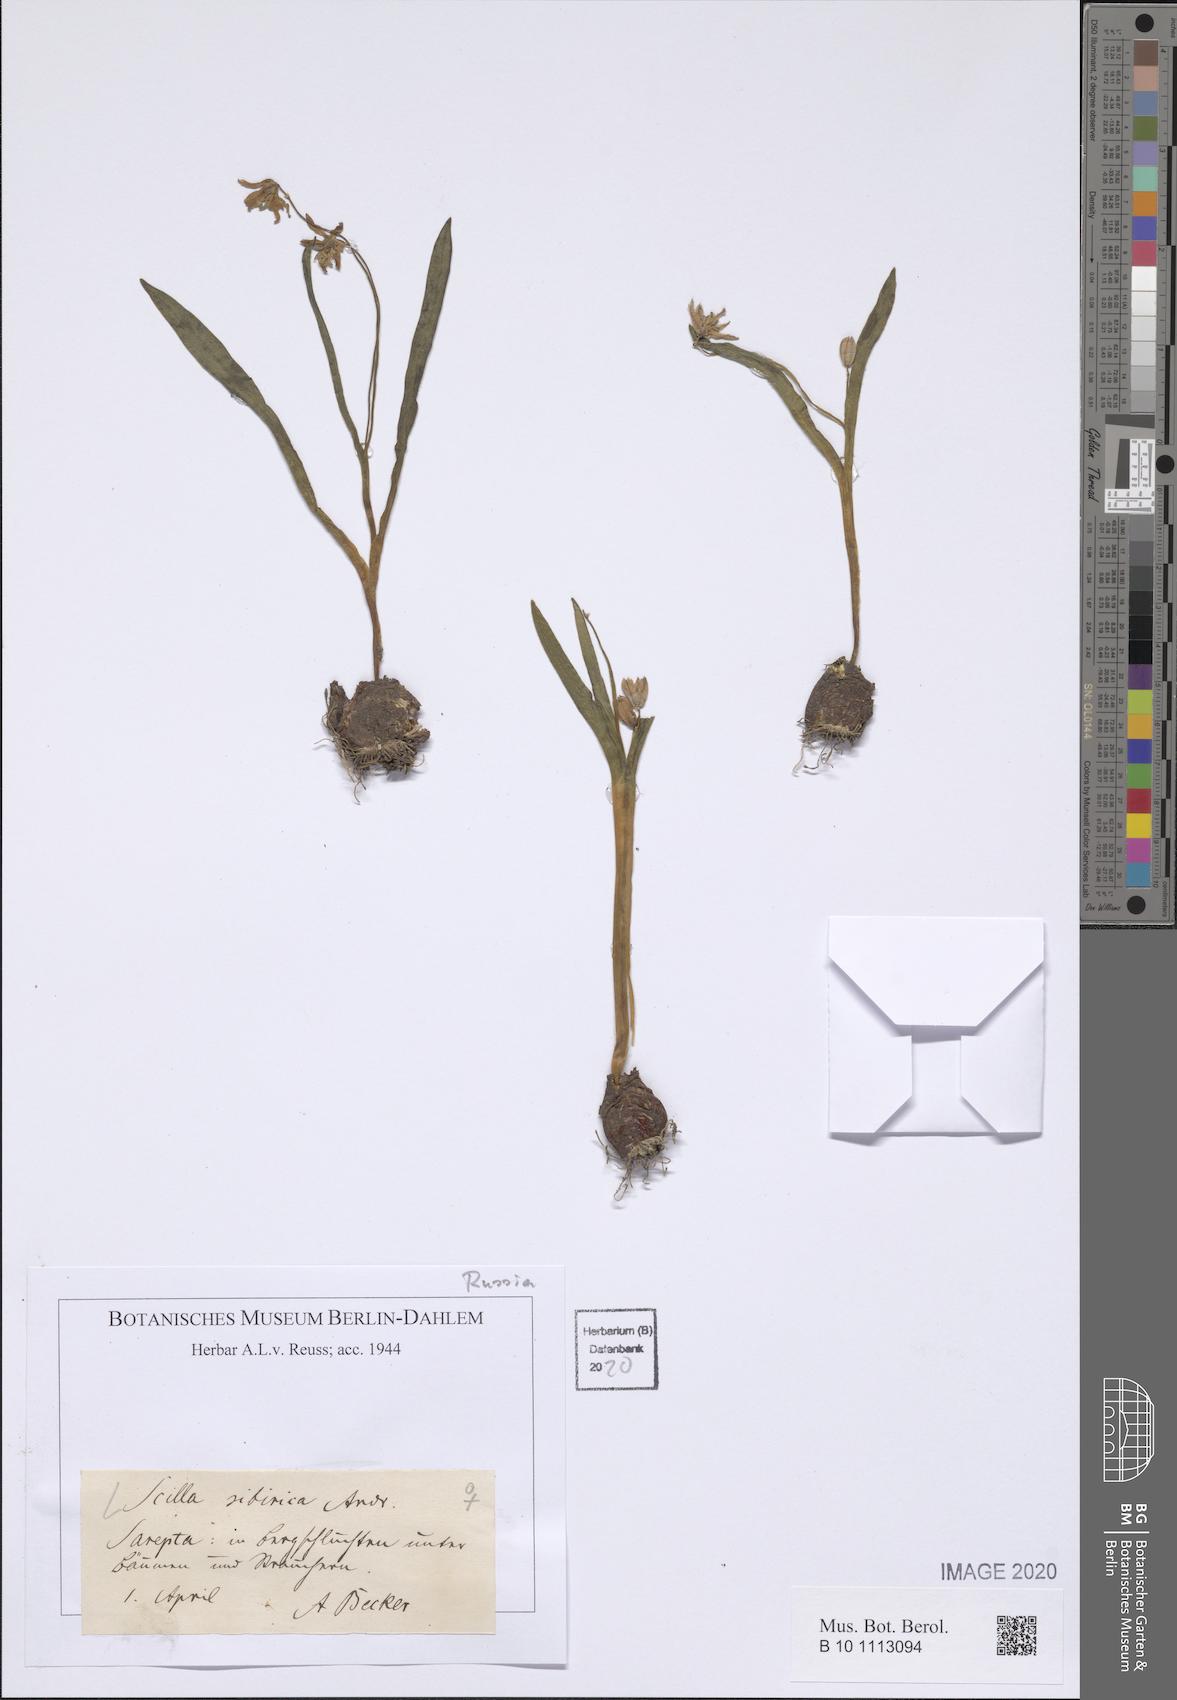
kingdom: Plantae
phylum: Tracheophyta
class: Liliopsida
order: Asparagales
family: Asparagaceae
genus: Scilla
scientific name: Scilla siberica
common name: Siberian squill
